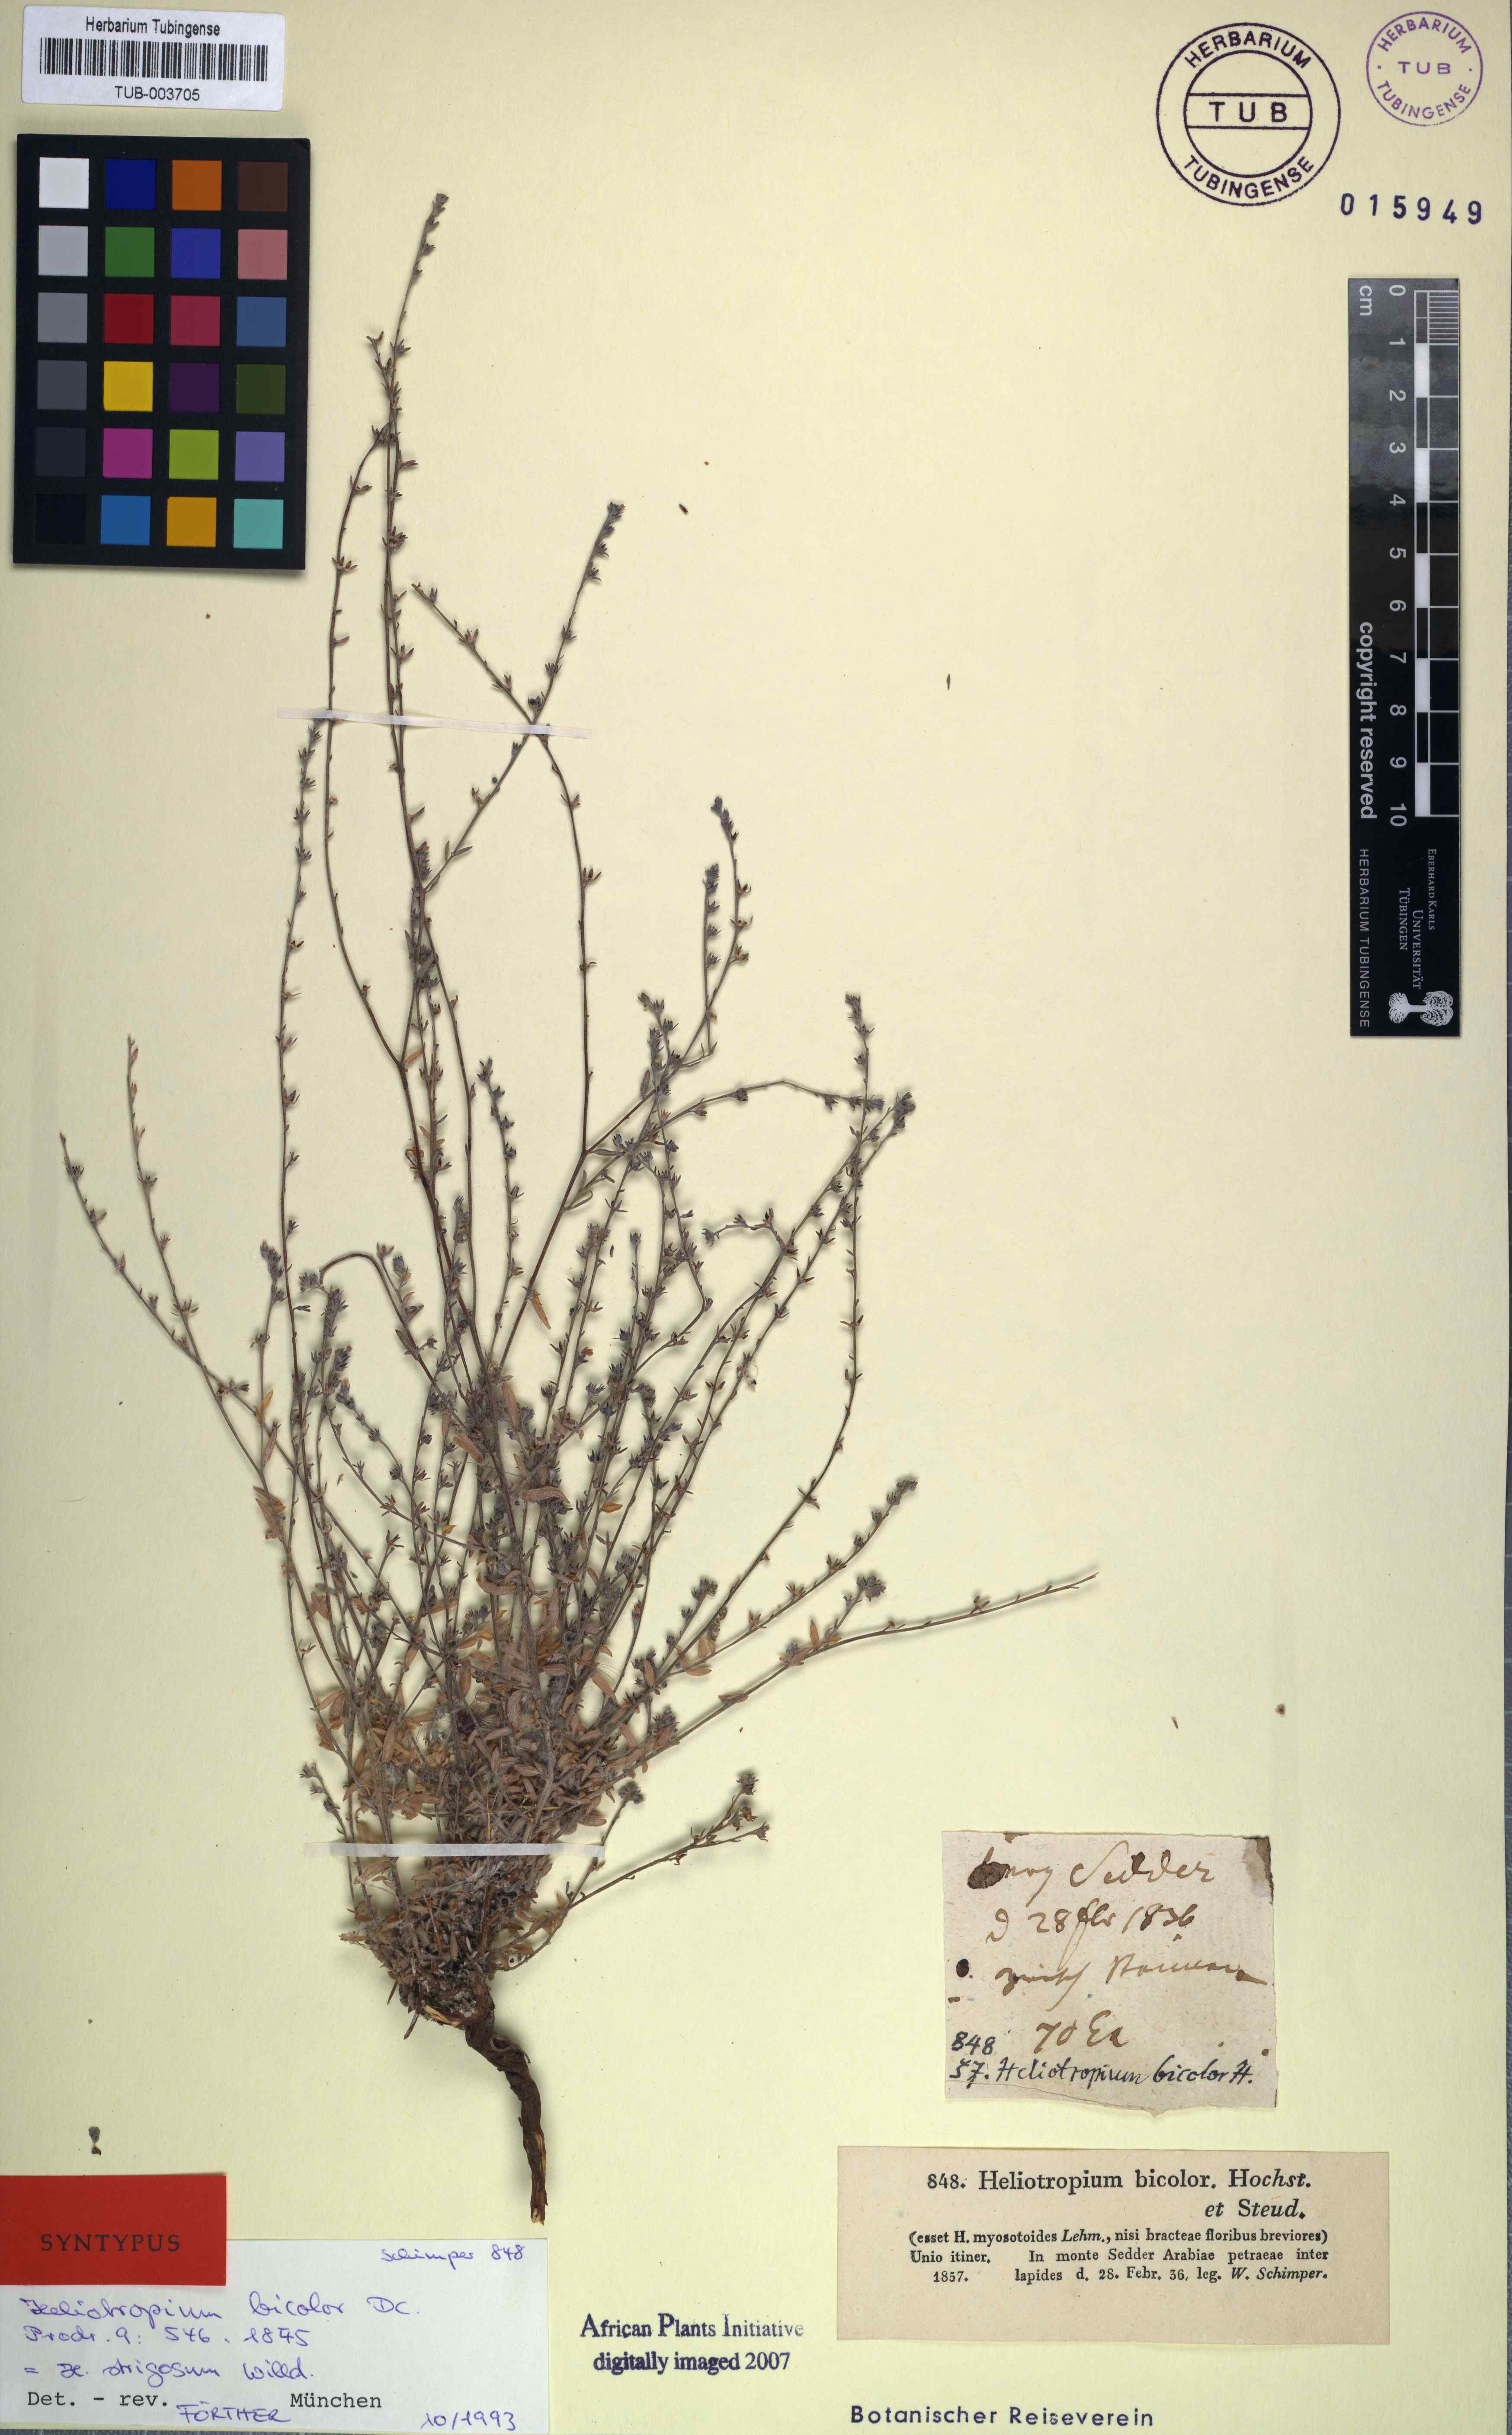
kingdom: Plantae
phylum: Tracheophyta
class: Magnoliopsida
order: Boraginales
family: Heliotropiaceae
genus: Euploca
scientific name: Euploca strigosa
